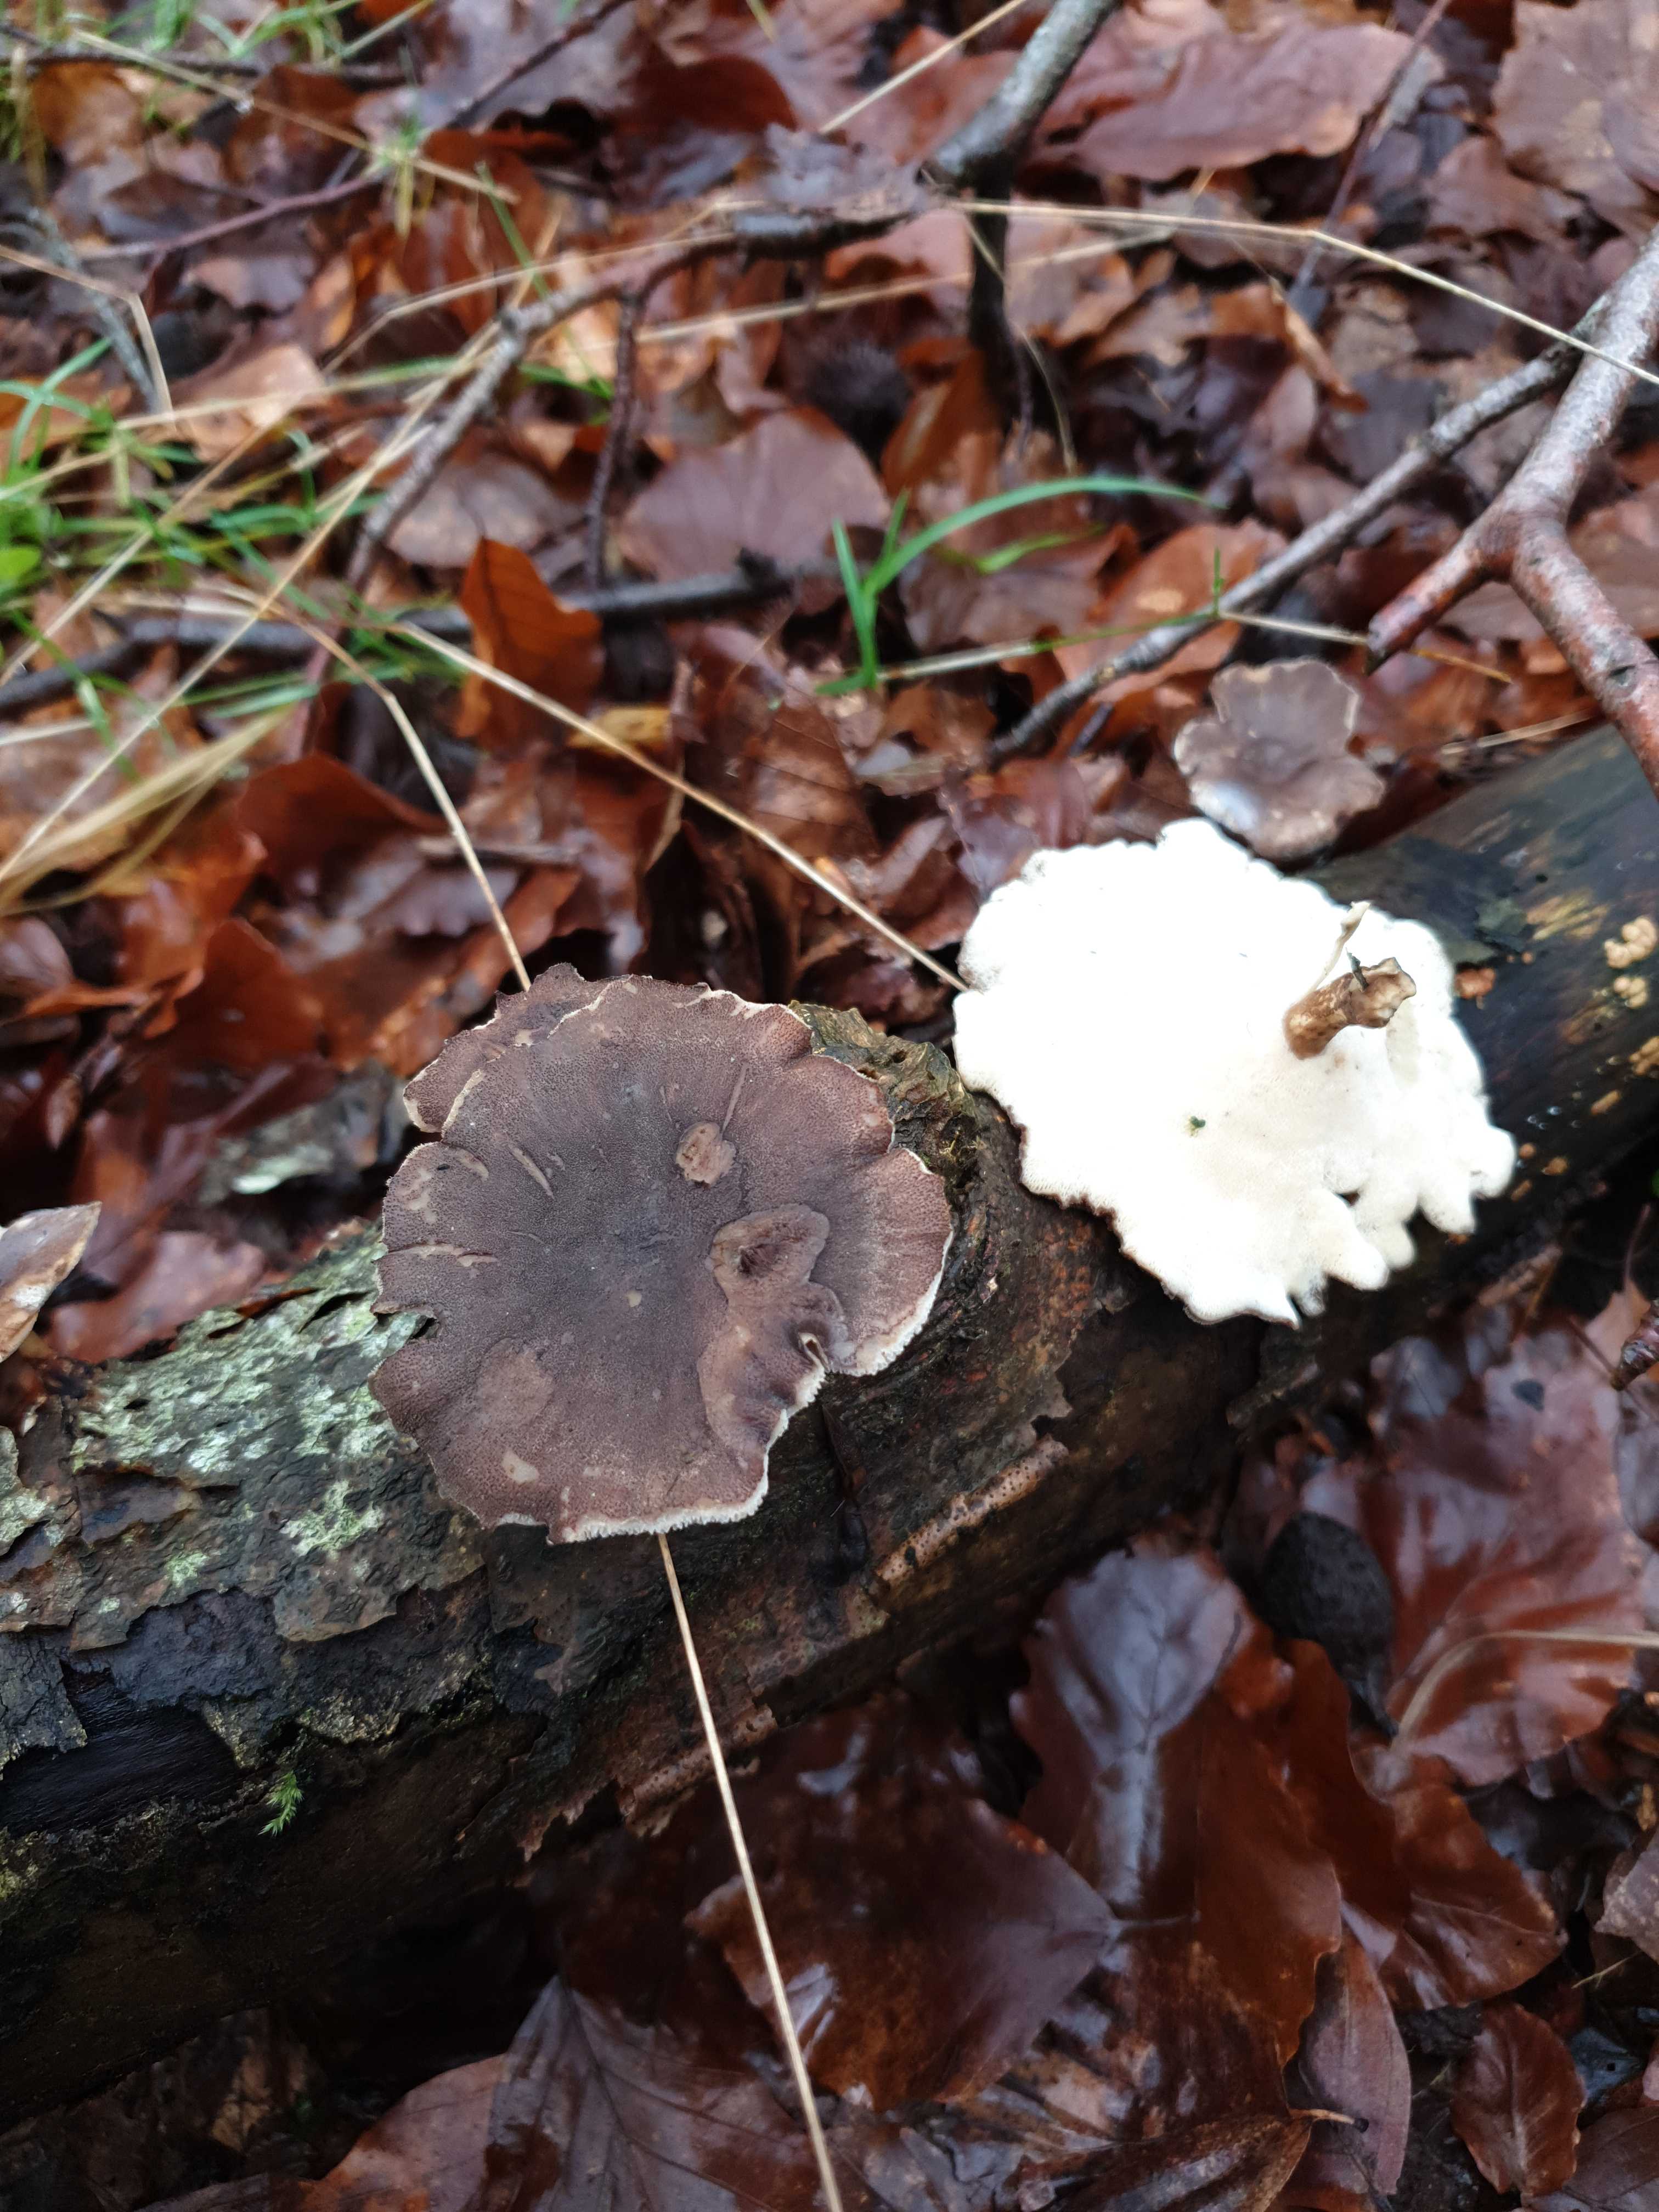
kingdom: Fungi
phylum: Basidiomycota
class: Agaricomycetes
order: Polyporales
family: Polyporaceae
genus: Lentinus
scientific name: Lentinus brumalis
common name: vinter-stilkporesvamp
